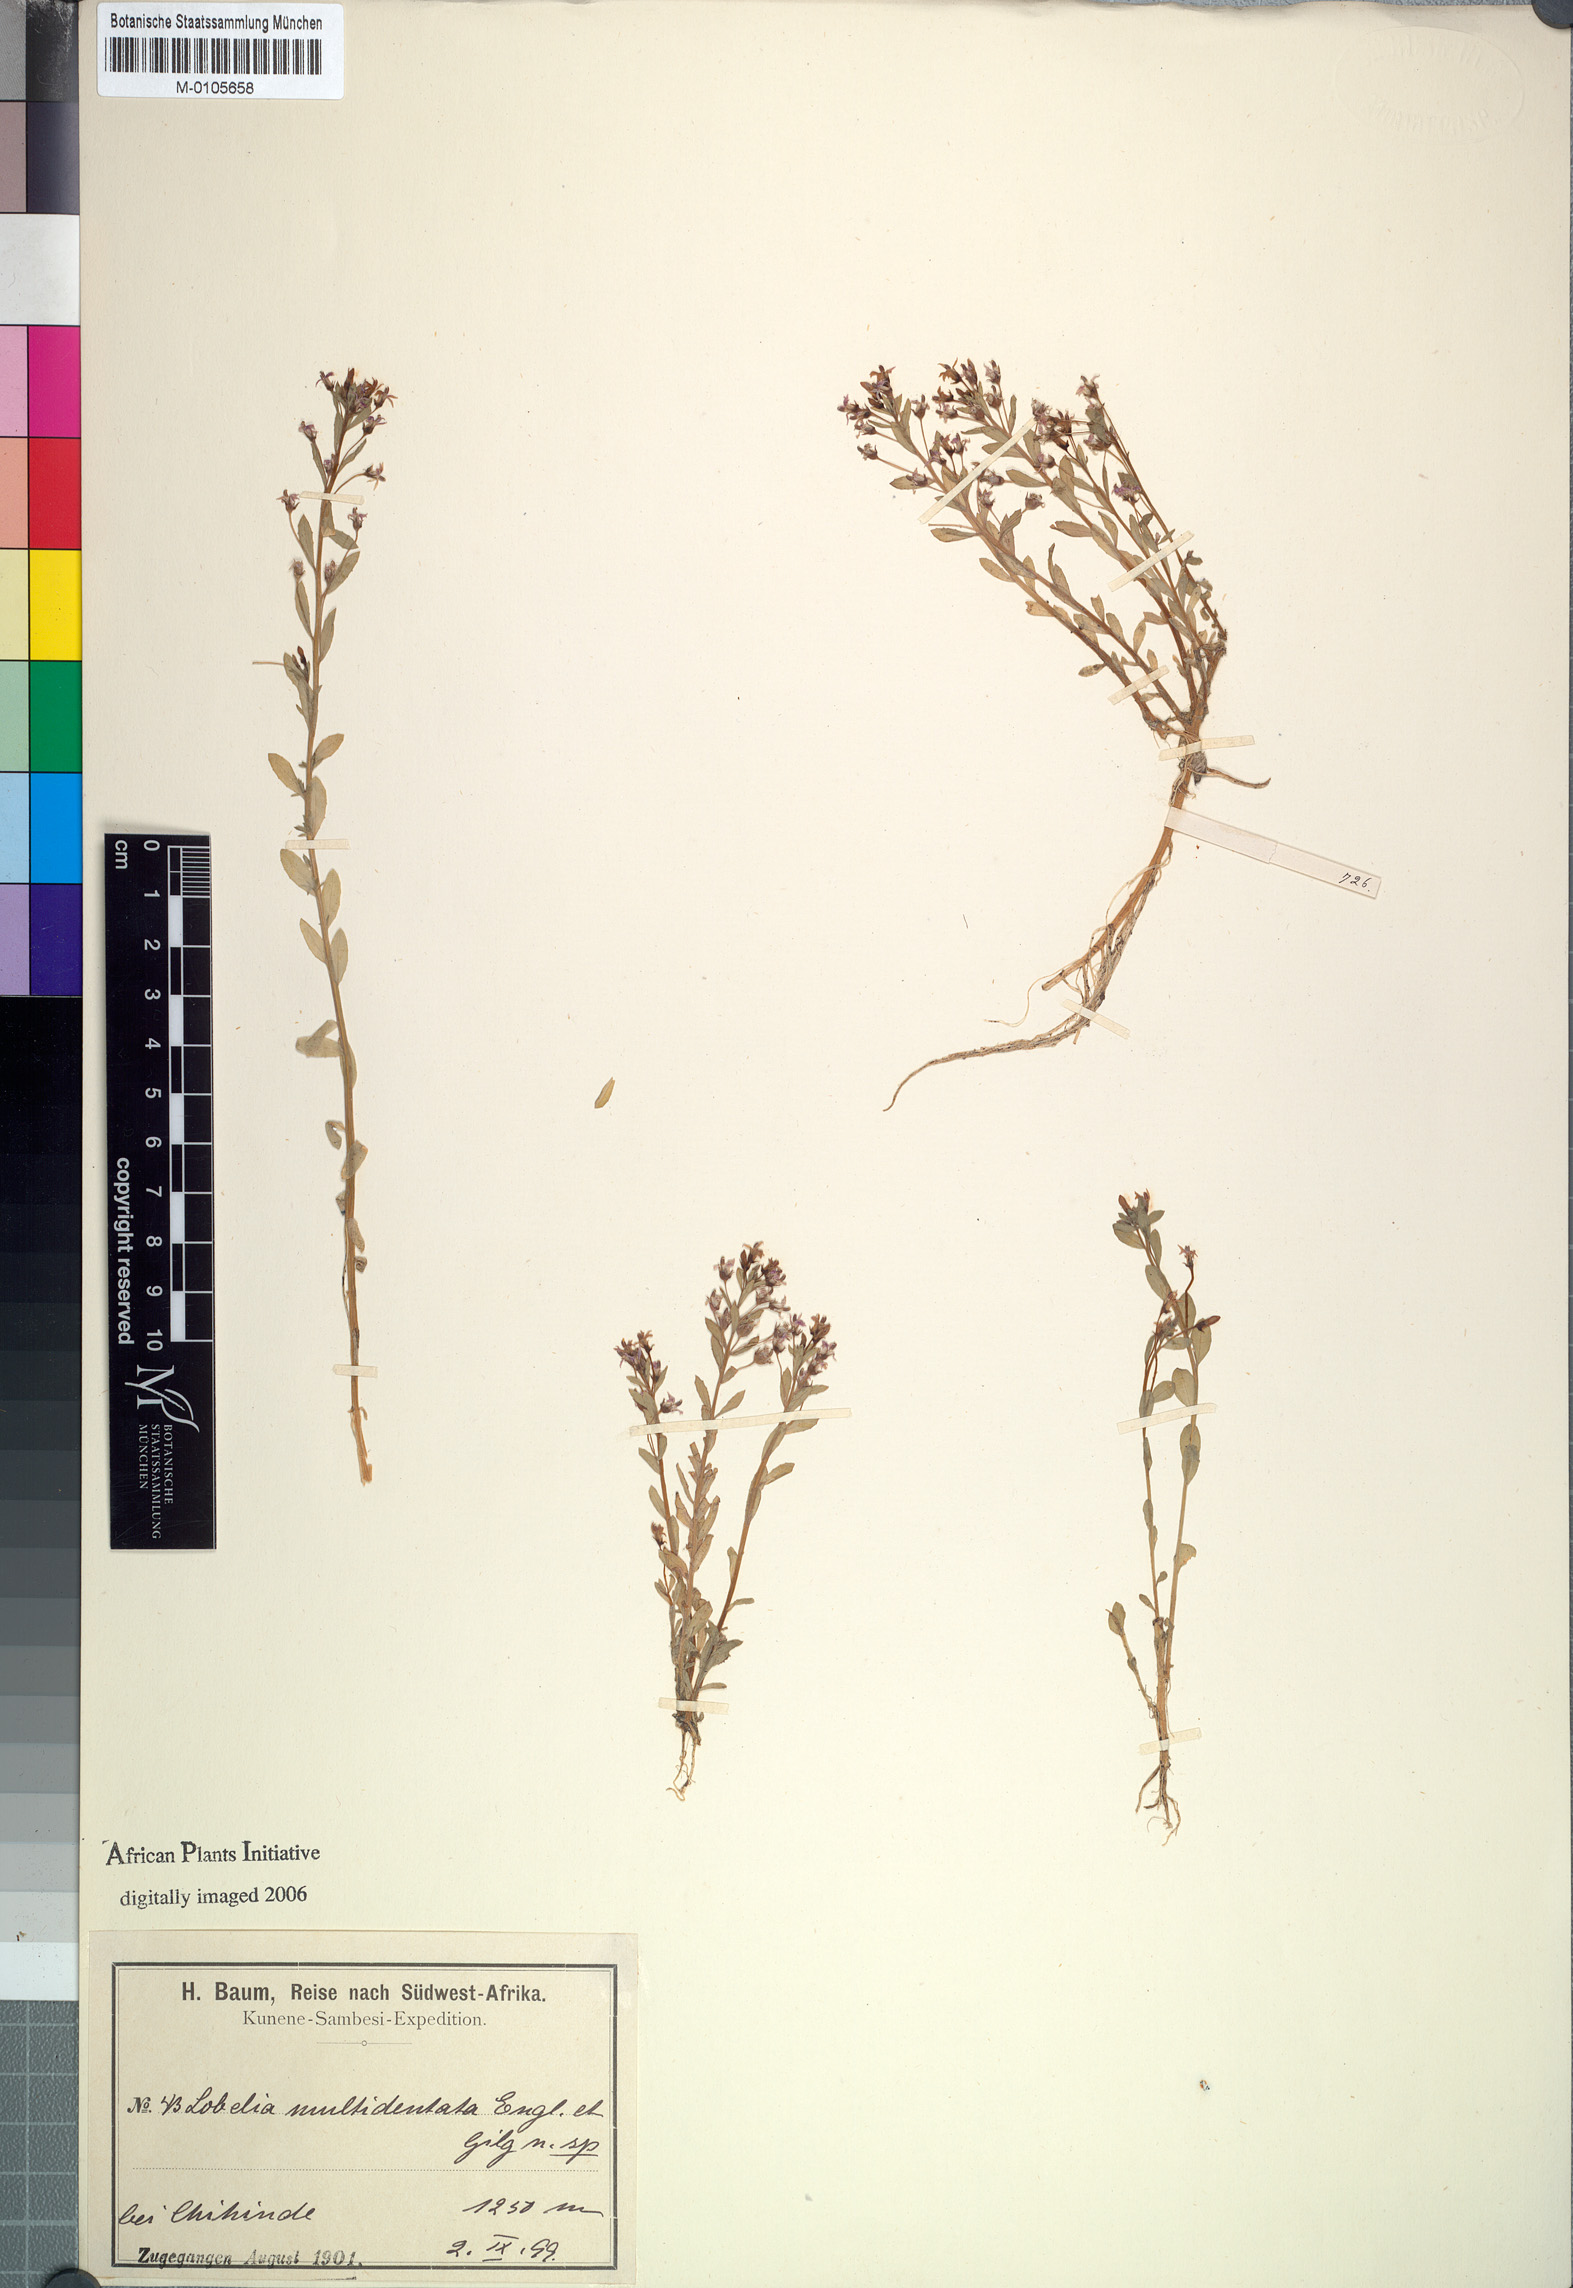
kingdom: Plantae
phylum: Tracheophyta
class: Magnoliopsida
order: Asterales
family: Campanulaceae
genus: Monopsis
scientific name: Monopsis debilis
